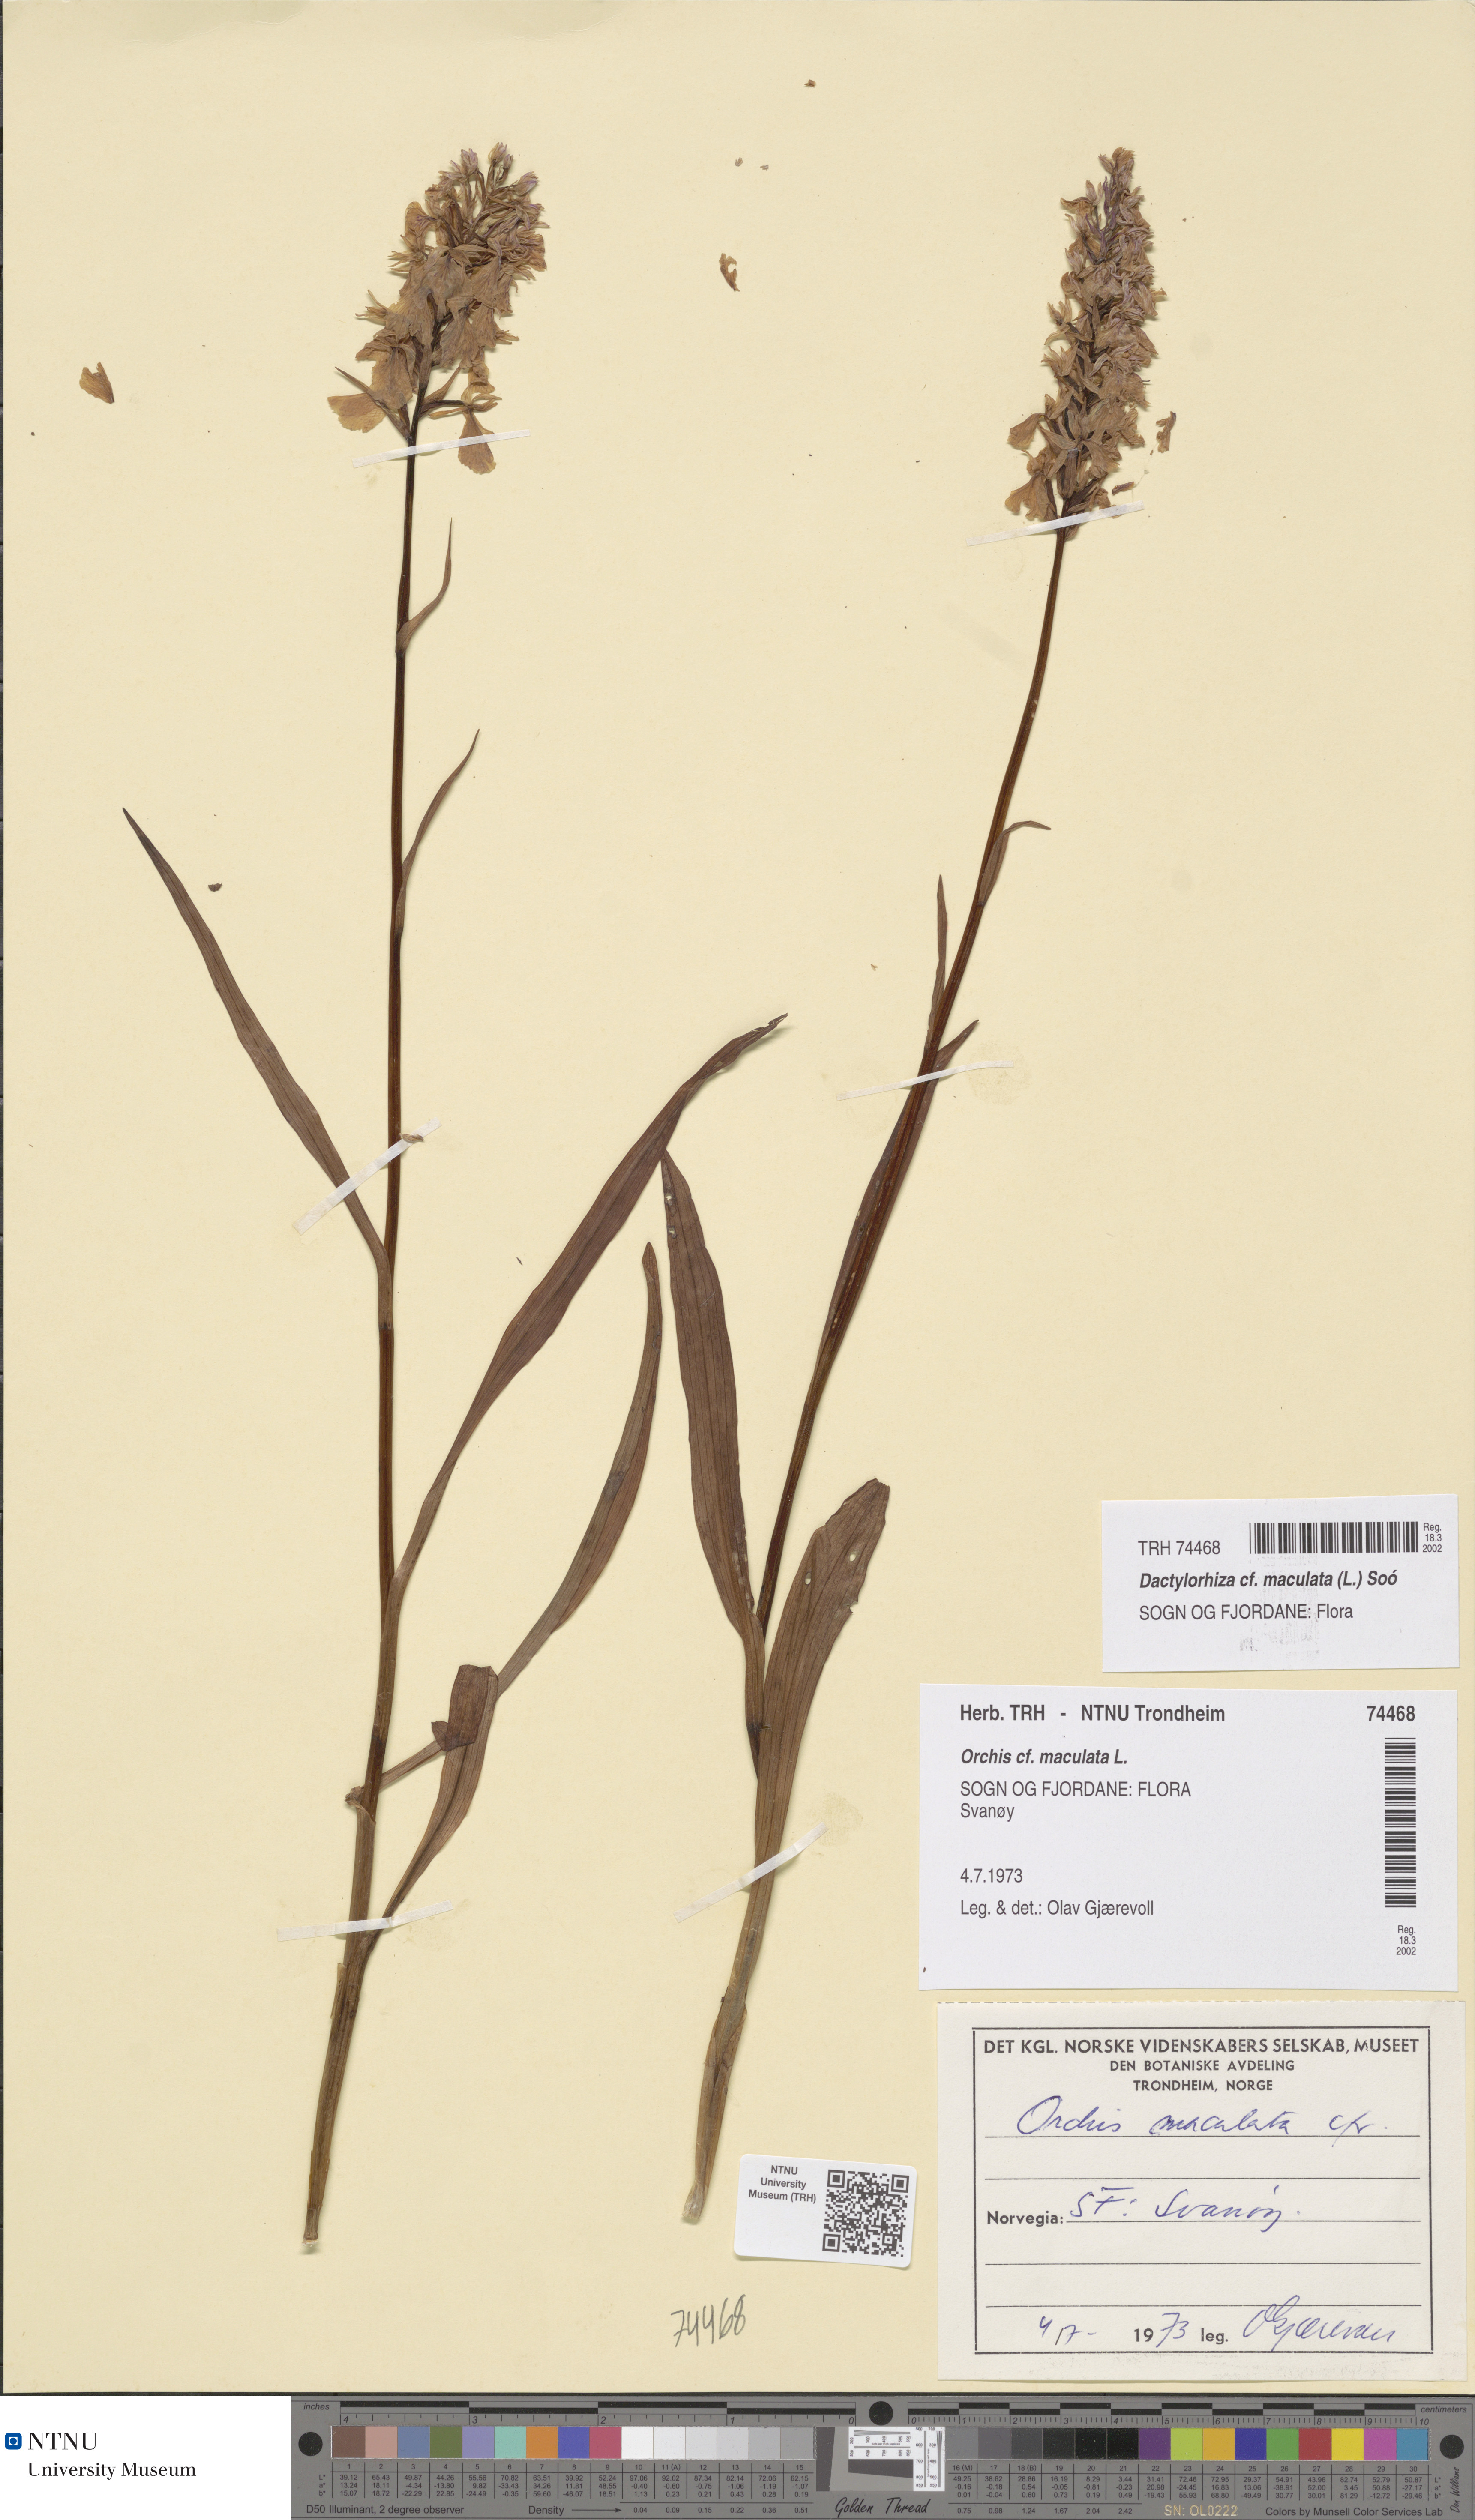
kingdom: Plantae
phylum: Tracheophyta
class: Liliopsida
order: Asparagales
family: Orchidaceae
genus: Dactylorhiza
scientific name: Dactylorhiza maculata
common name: Heath spotted-orchid
